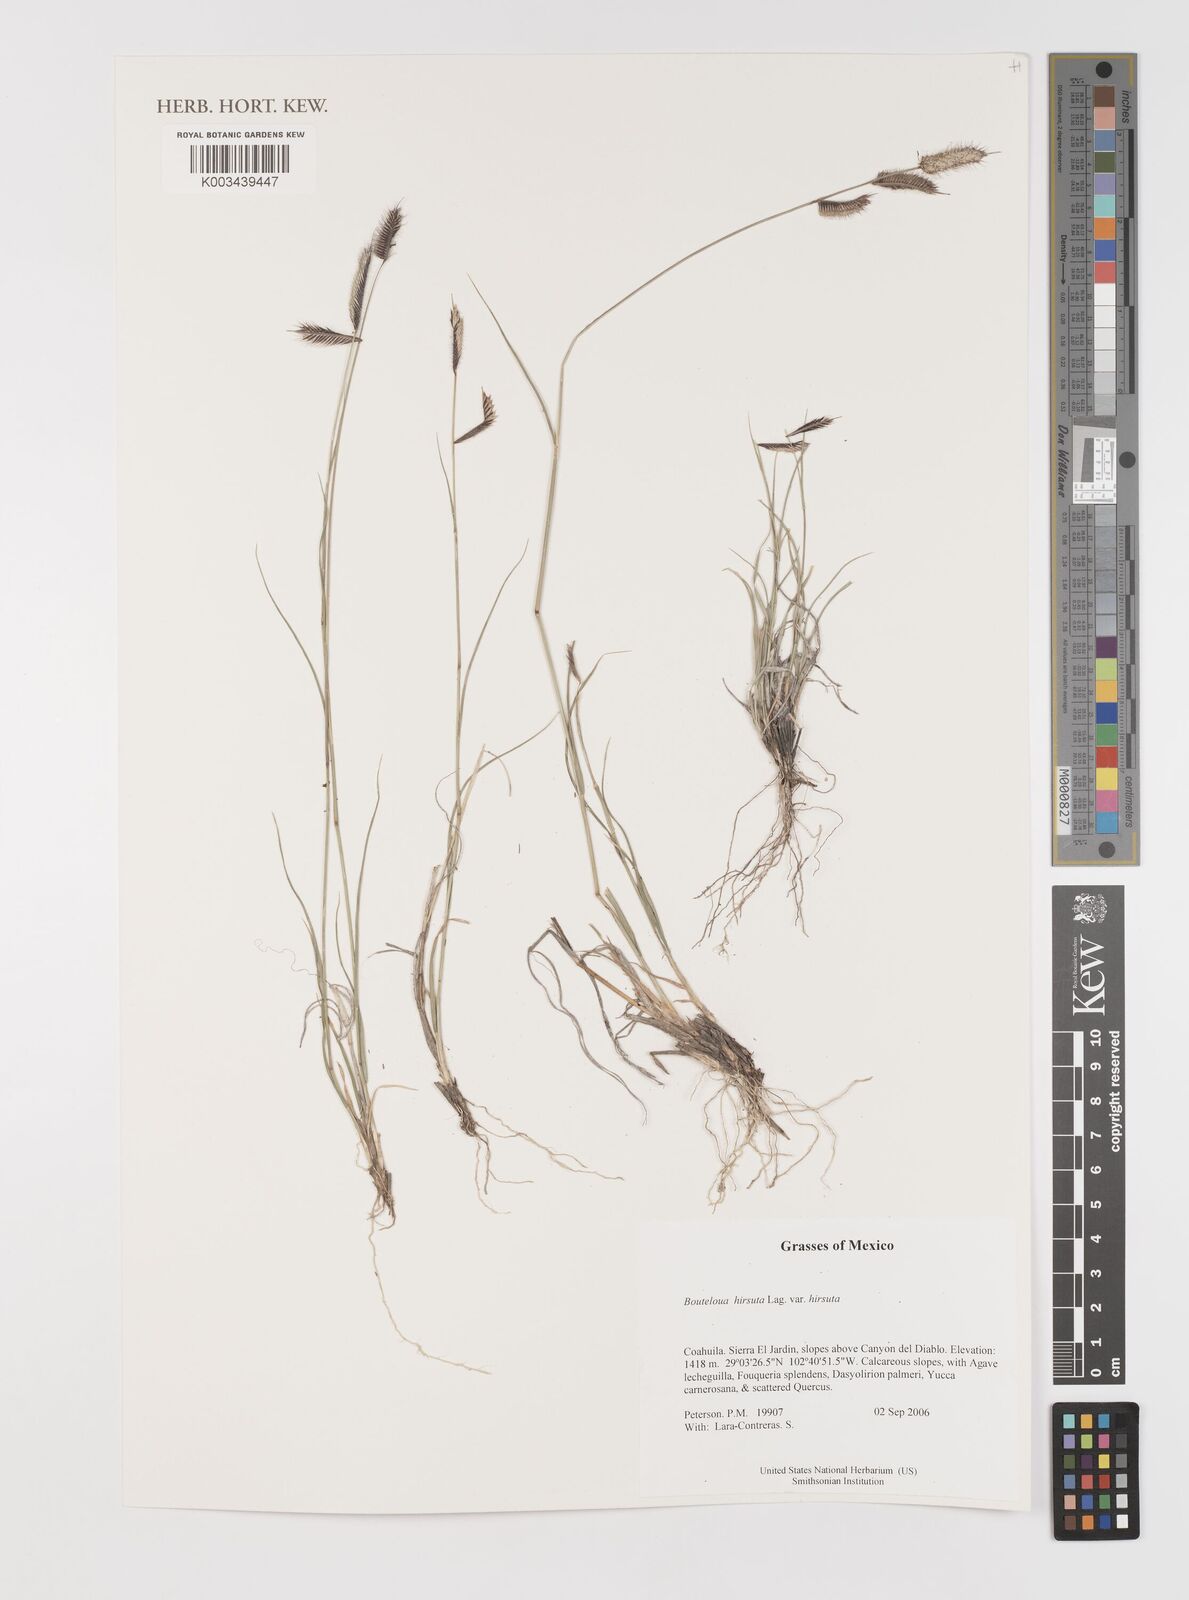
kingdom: Plantae
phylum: Tracheophyta
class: Liliopsida
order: Poales
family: Poaceae
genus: Bouteloua
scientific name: Bouteloua hirsuta
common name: Hairy grama
